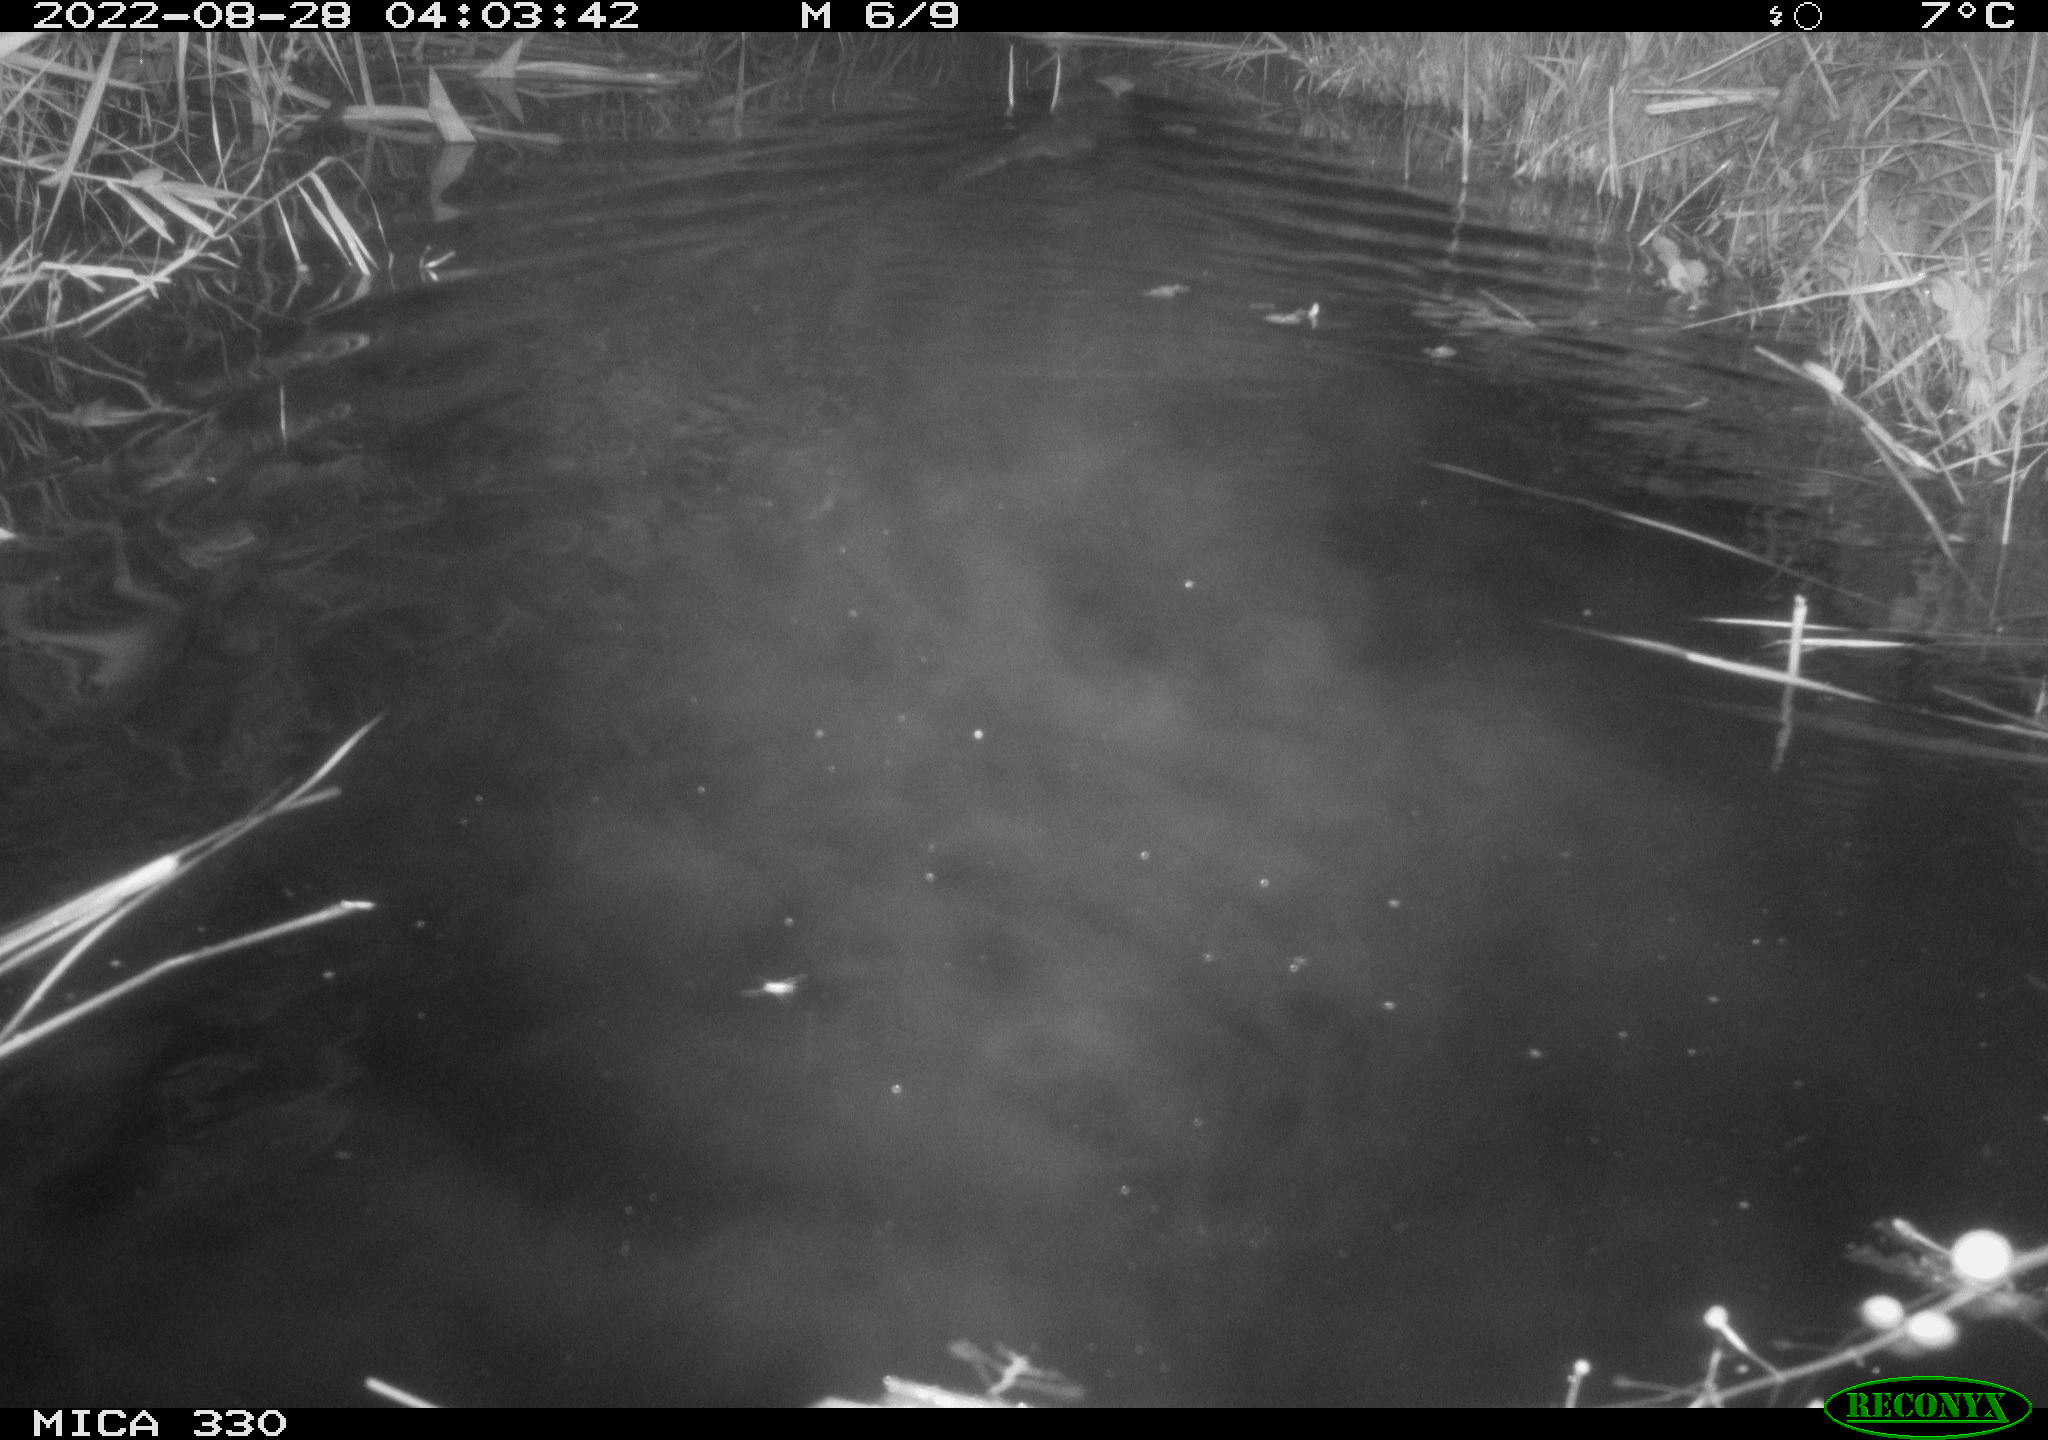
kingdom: Animalia
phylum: Chordata
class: Mammalia
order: Carnivora
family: Mustelidae
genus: Lutra
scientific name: Lutra lutra
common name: European otter
